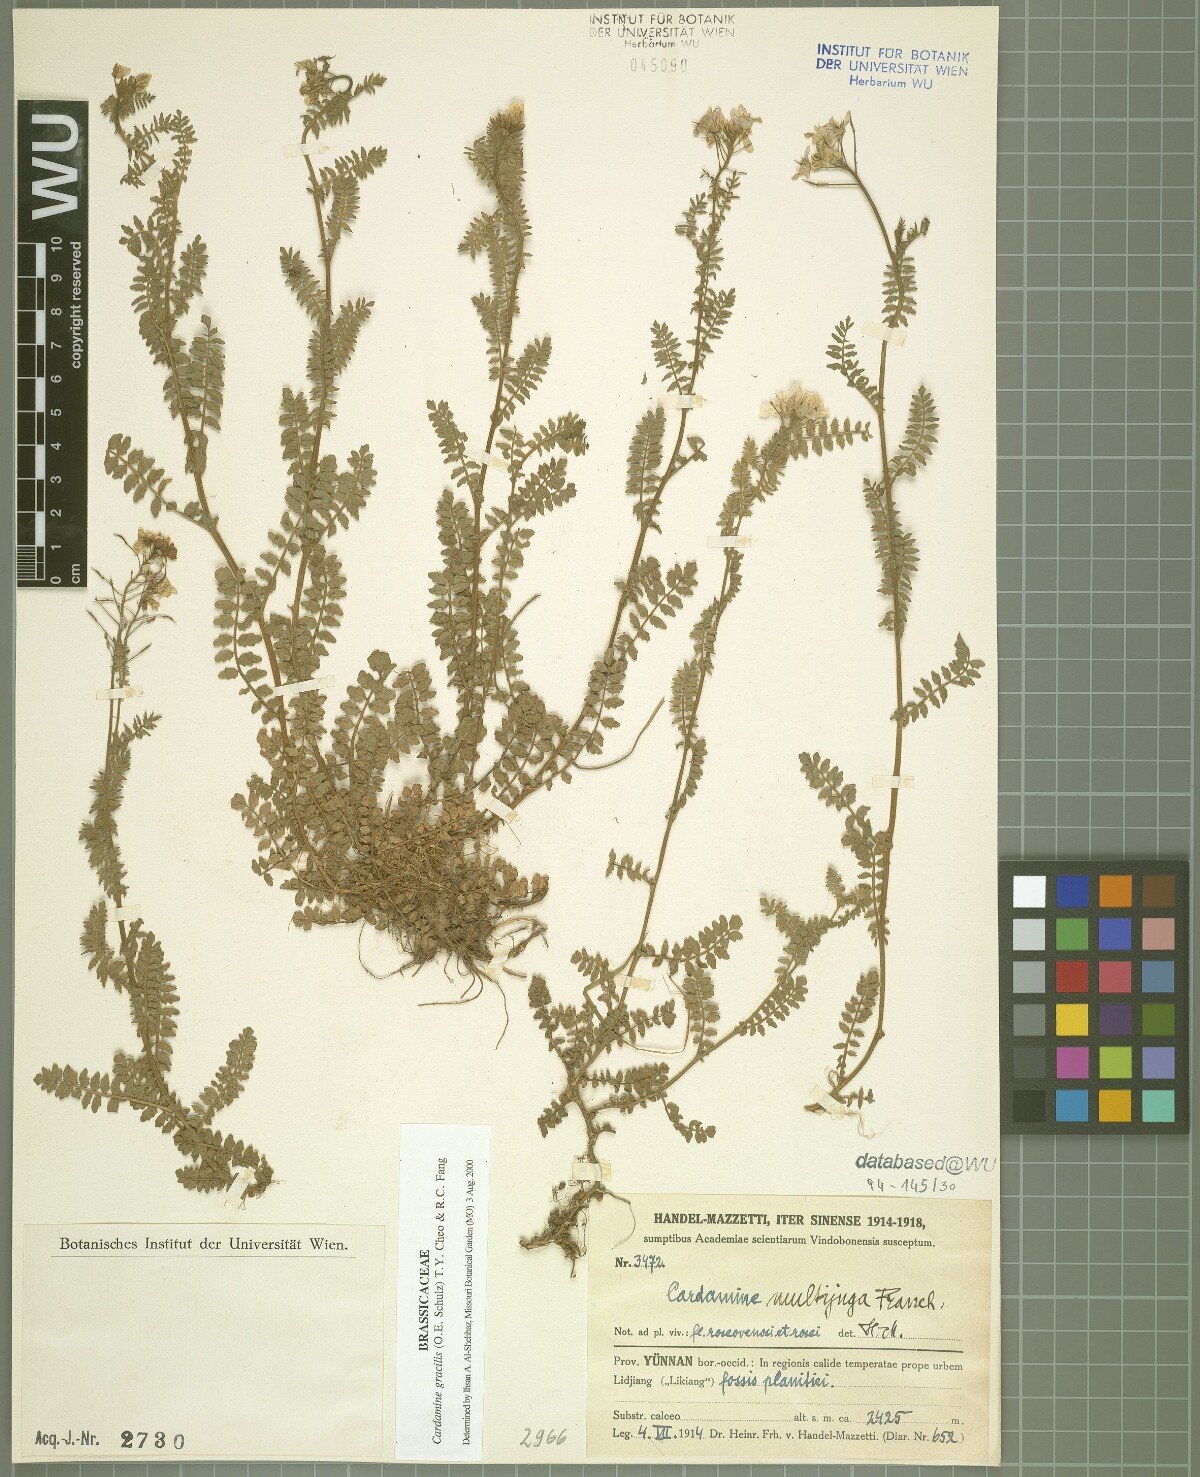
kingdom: Plantae
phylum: Tracheophyta
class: Magnoliopsida
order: Brassicales
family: Brassicaceae
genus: Cardamine
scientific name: Cardamine gracilis
